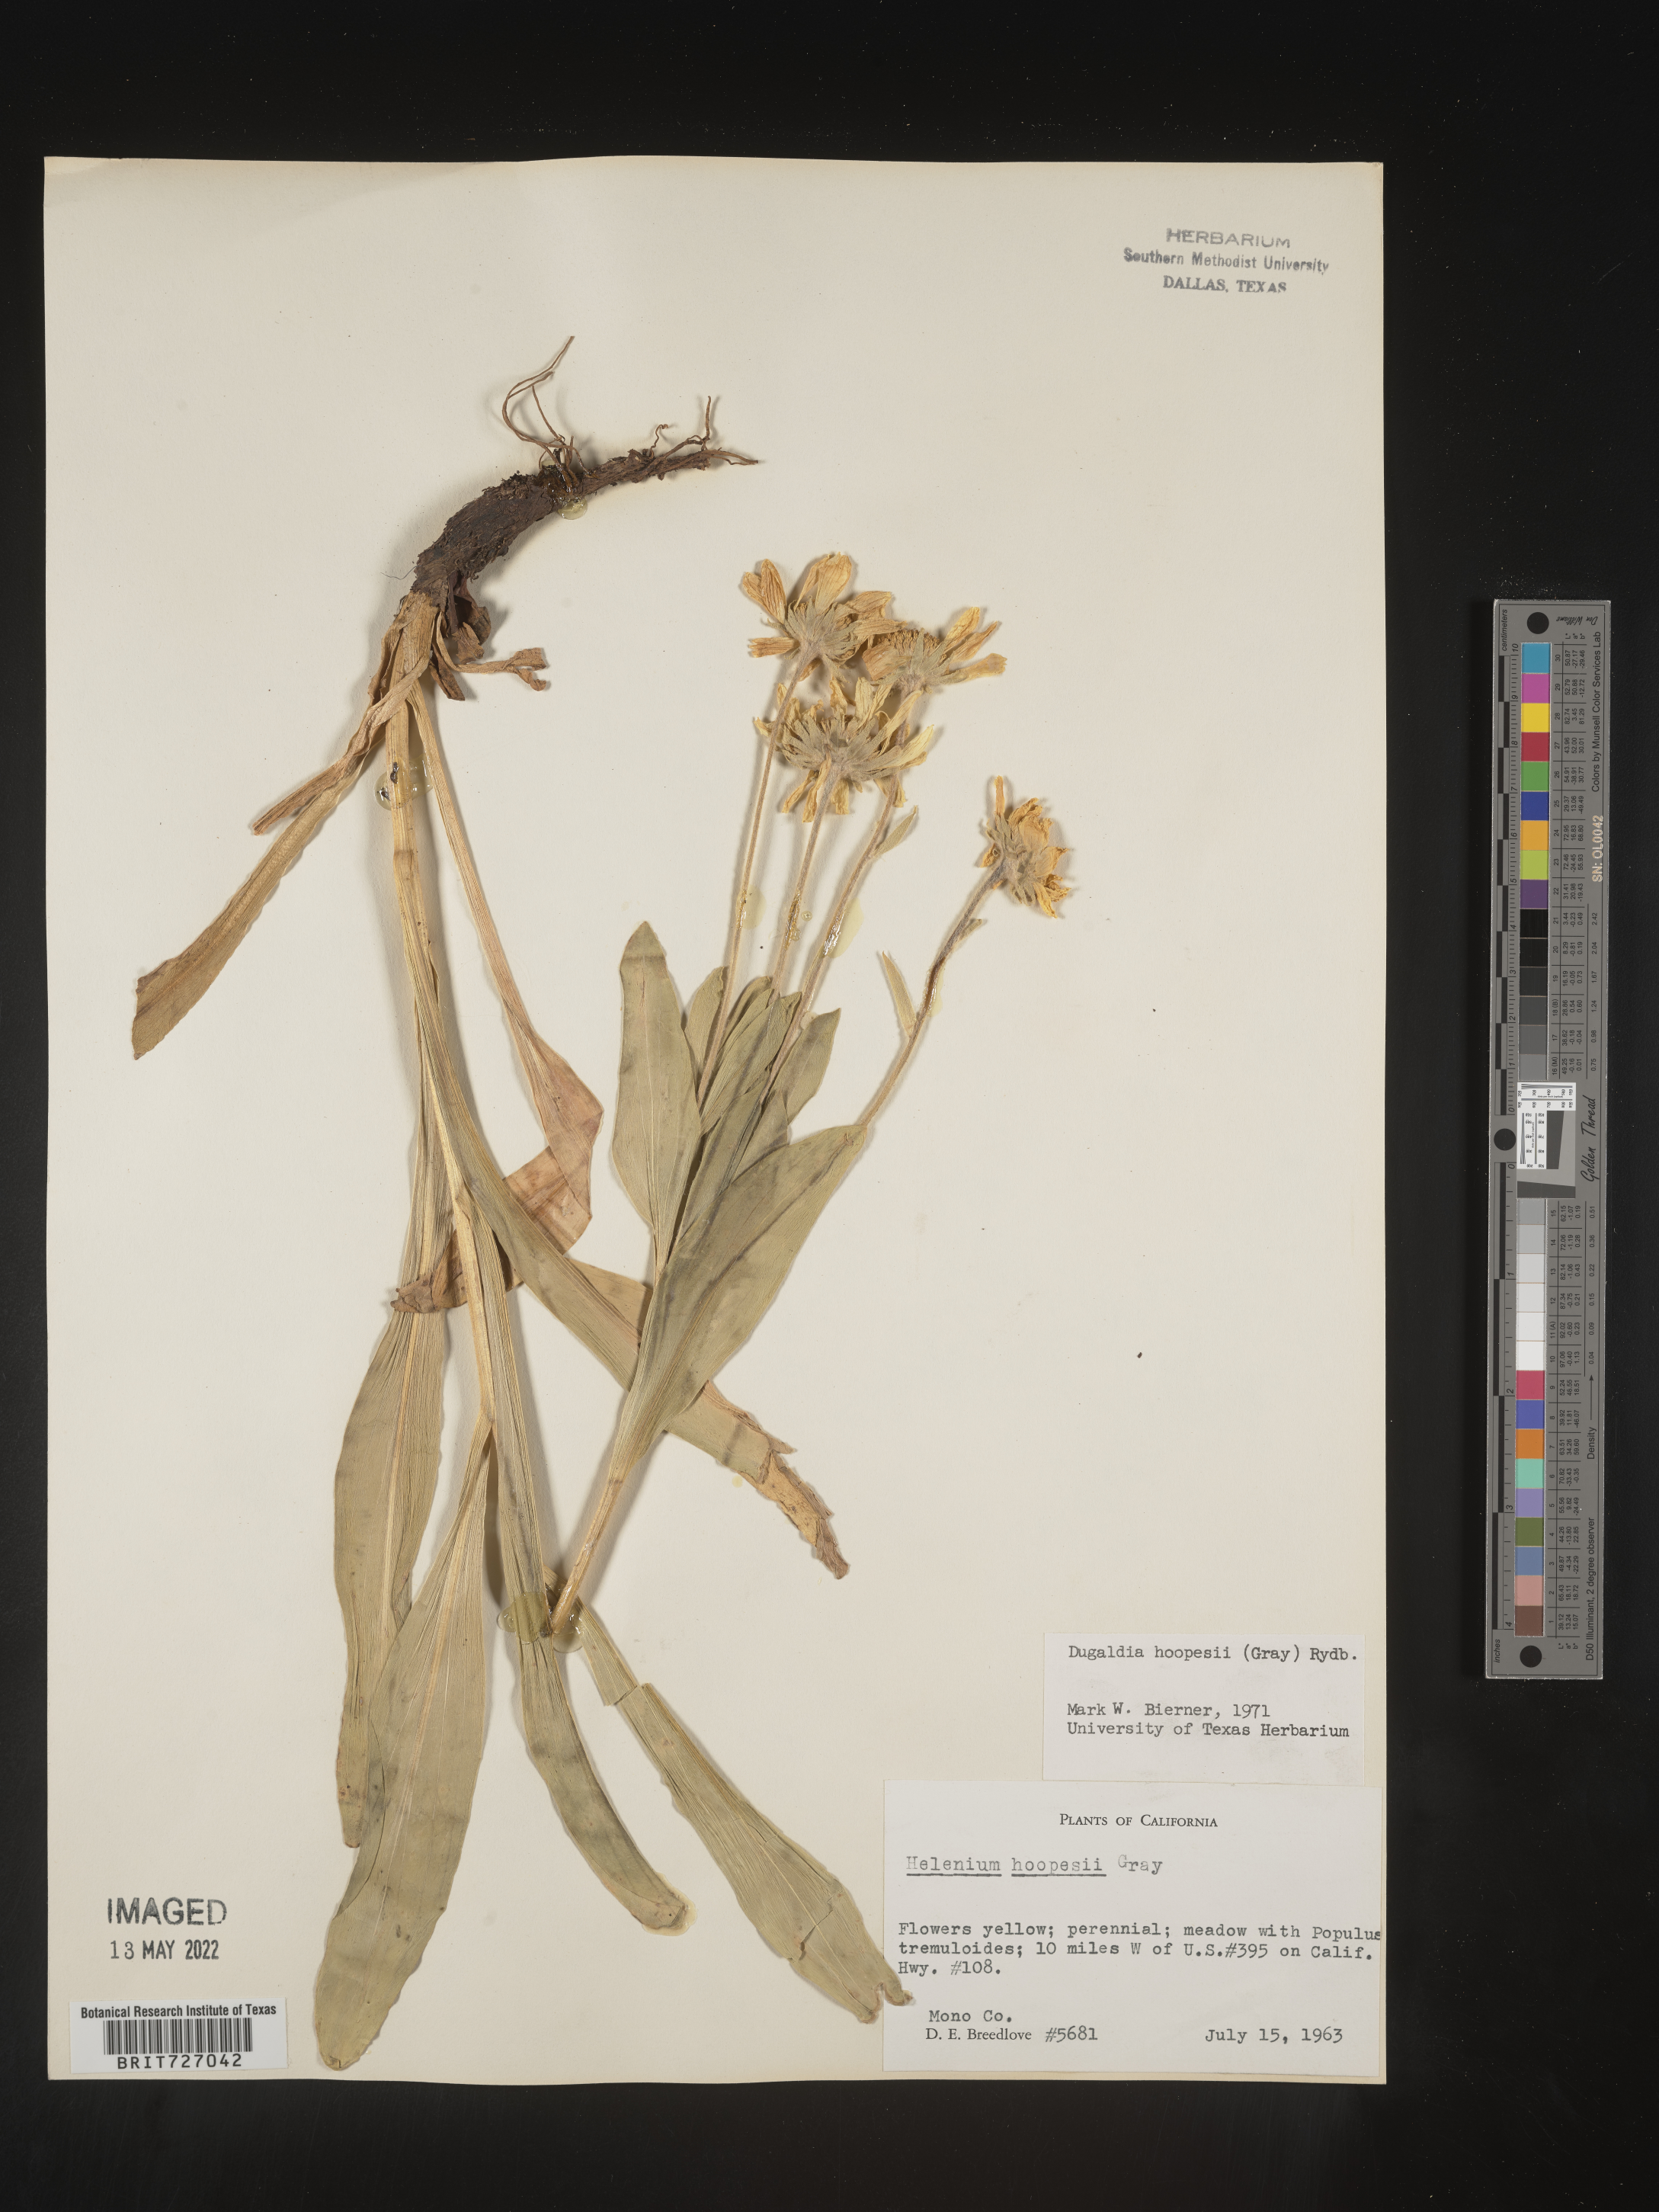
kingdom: Plantae
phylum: Tracheophyta
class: Magnoliopsida
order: Asterales
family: Asteraceae
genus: Hymenoxys
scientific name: Hymenoxys hoopesii
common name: Orange-sneezeweed
